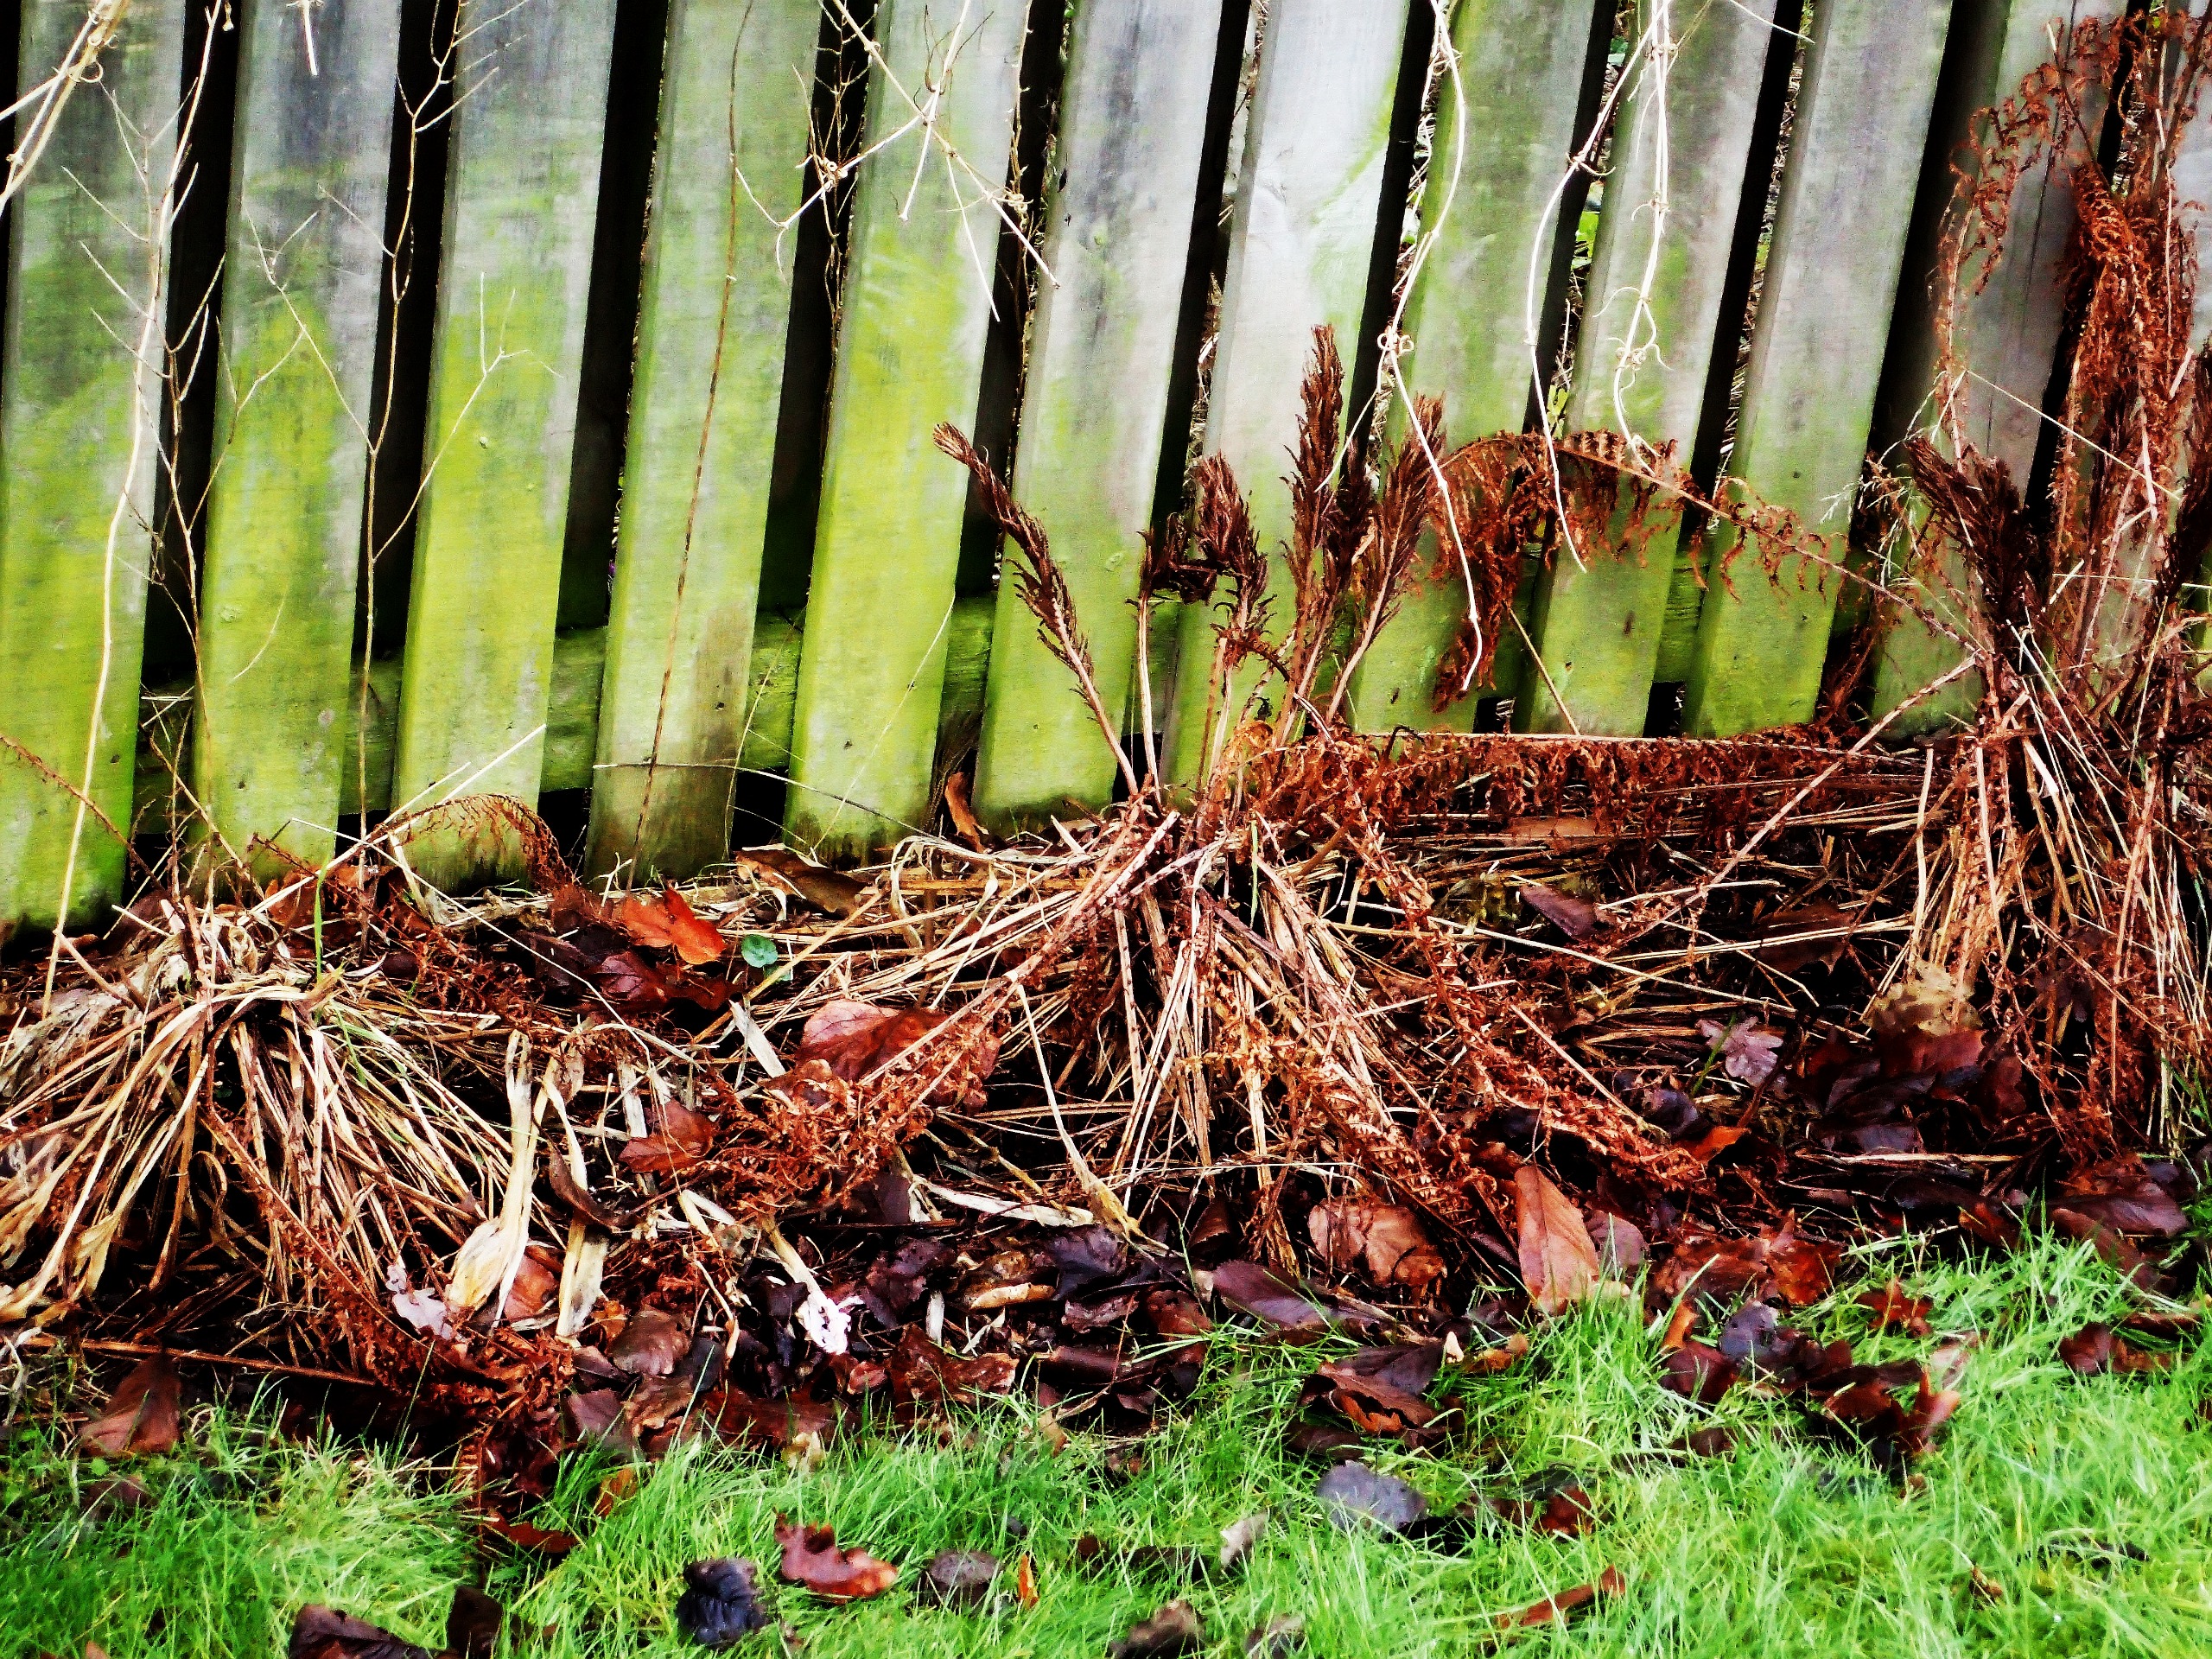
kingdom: Plantae
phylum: Tracheophyta
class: Polypodiopsida
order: Polypodiales
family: Onocleaceae
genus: Matteuccia
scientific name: Matteuccia struthiopteris
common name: Strudsvinge
